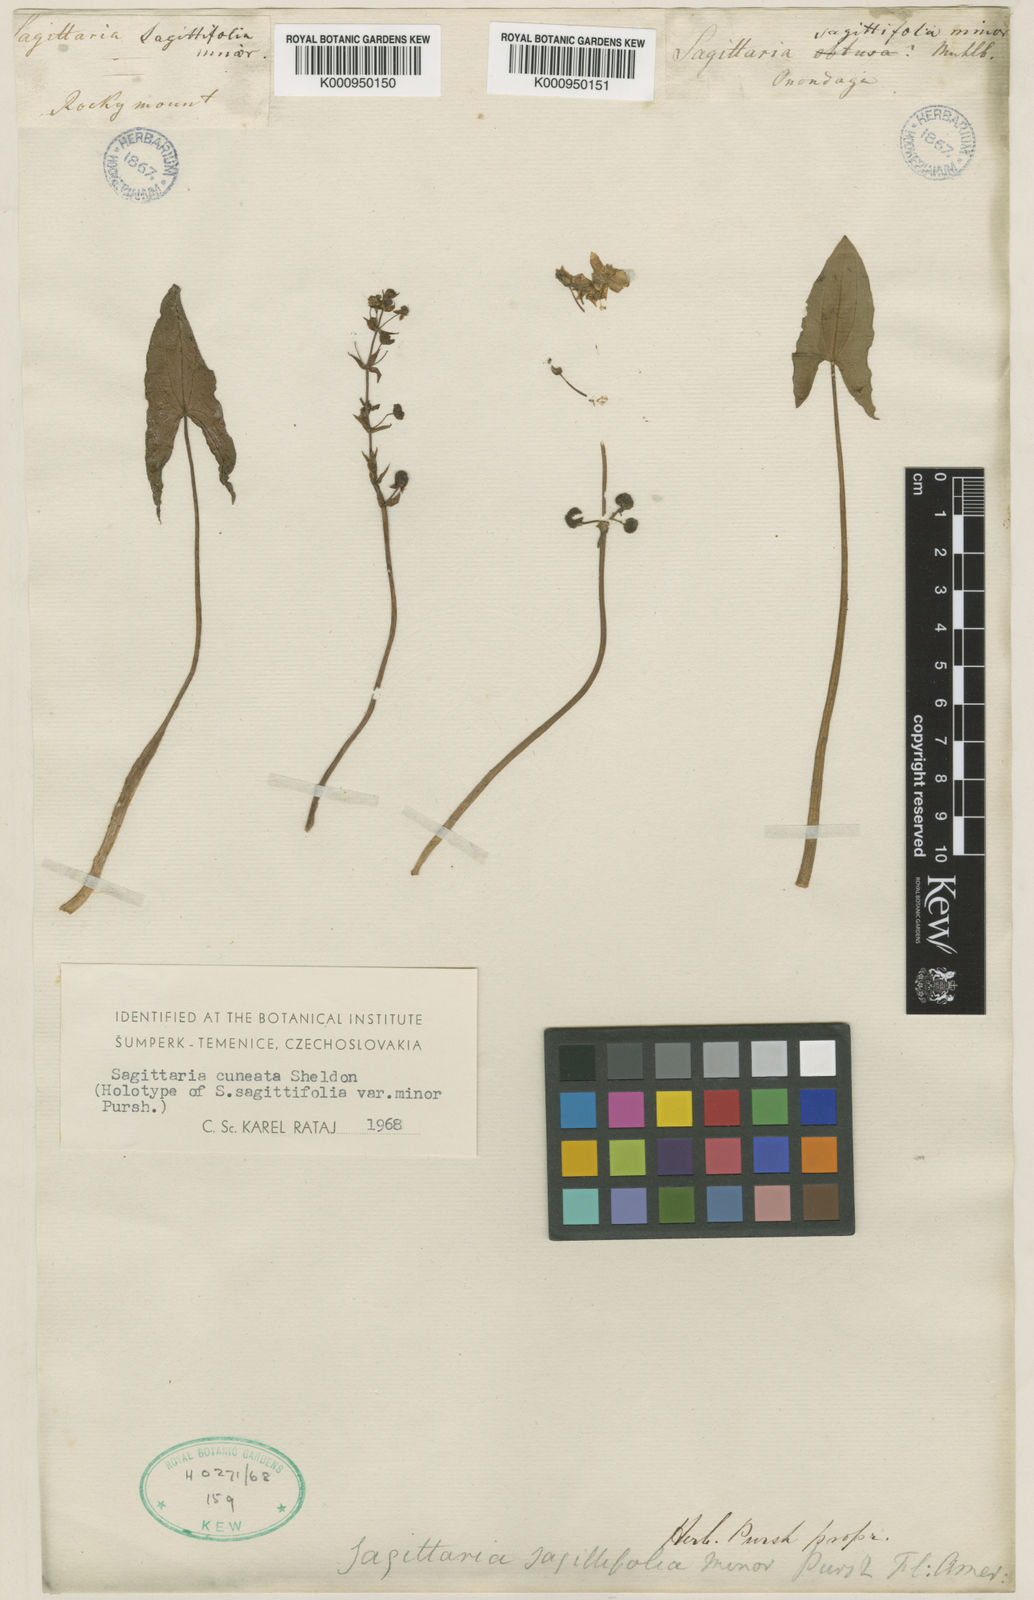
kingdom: Plantae
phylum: Tracheophyta
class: Liliopsida
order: Alismatales
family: Alismataceae
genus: Sagittaria
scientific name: Sagittaria cuneata
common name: Northern arrowhead
